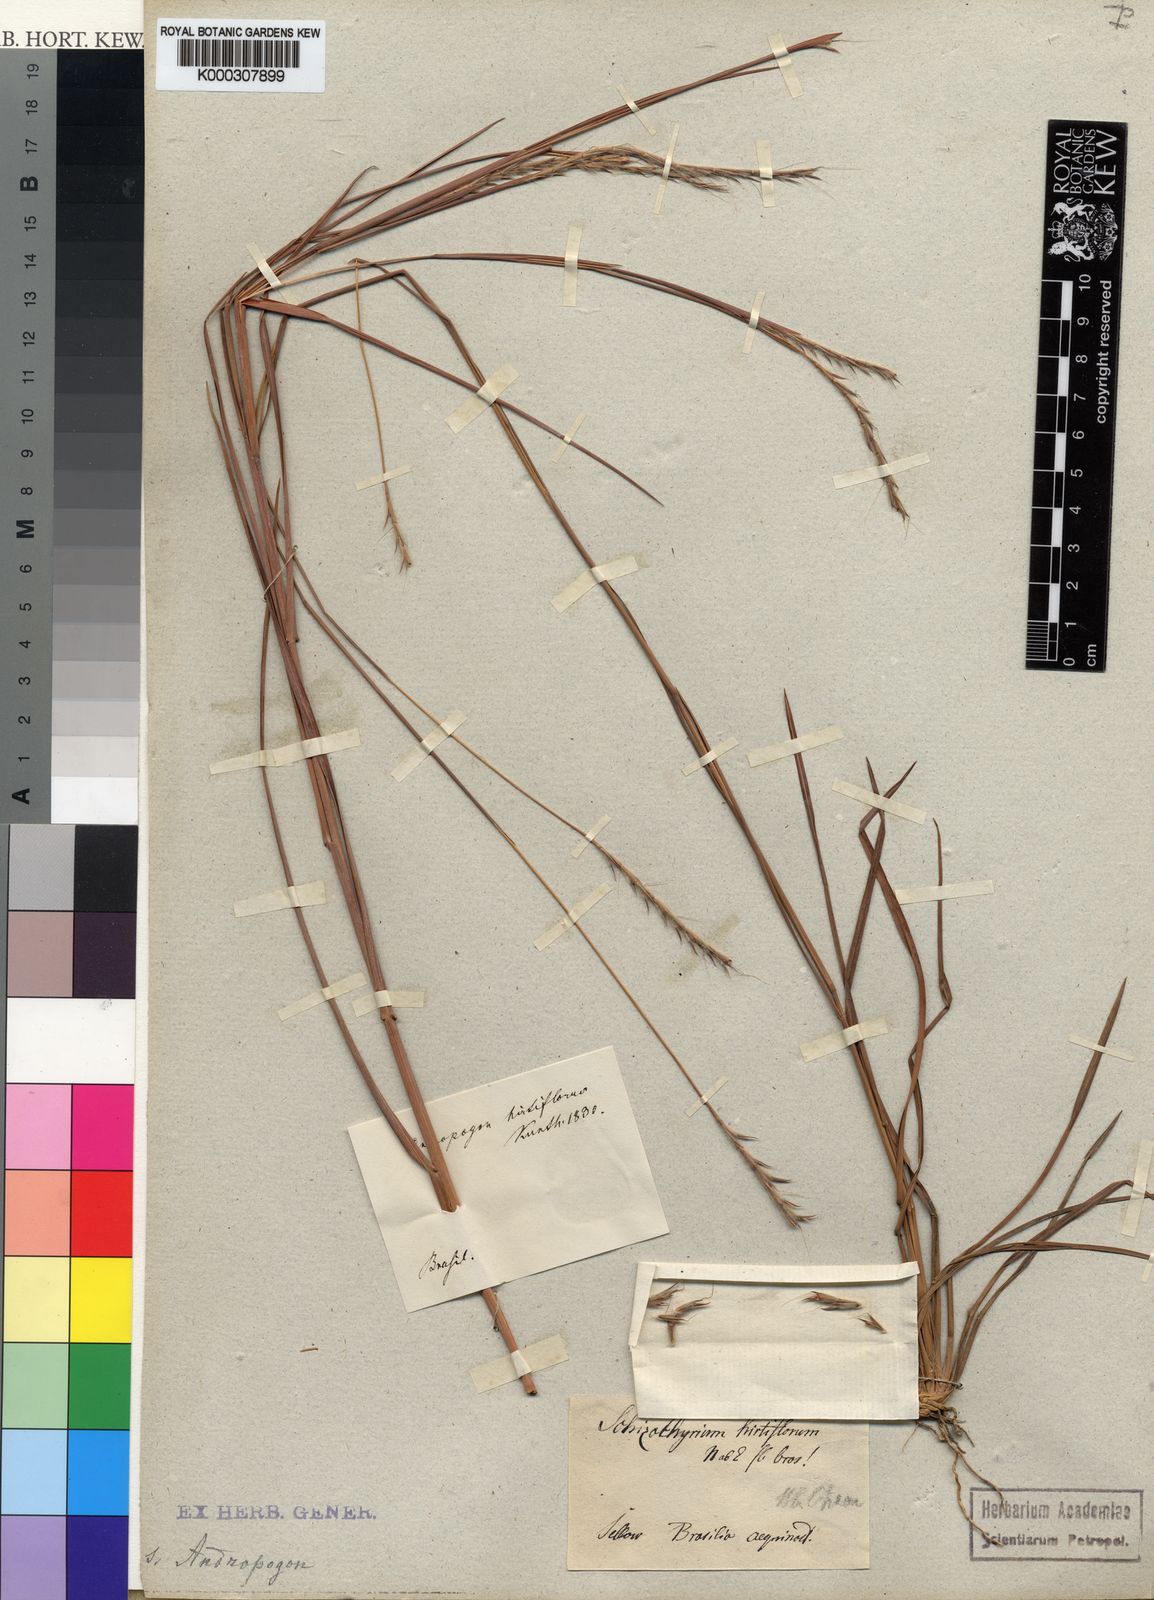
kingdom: Plantae
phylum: Tracheophyta
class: Liliopsida
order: Poales
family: Poaceae
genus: Schizachyrium
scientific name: Schizachyrium sanguineum
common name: Crimson bluestem
